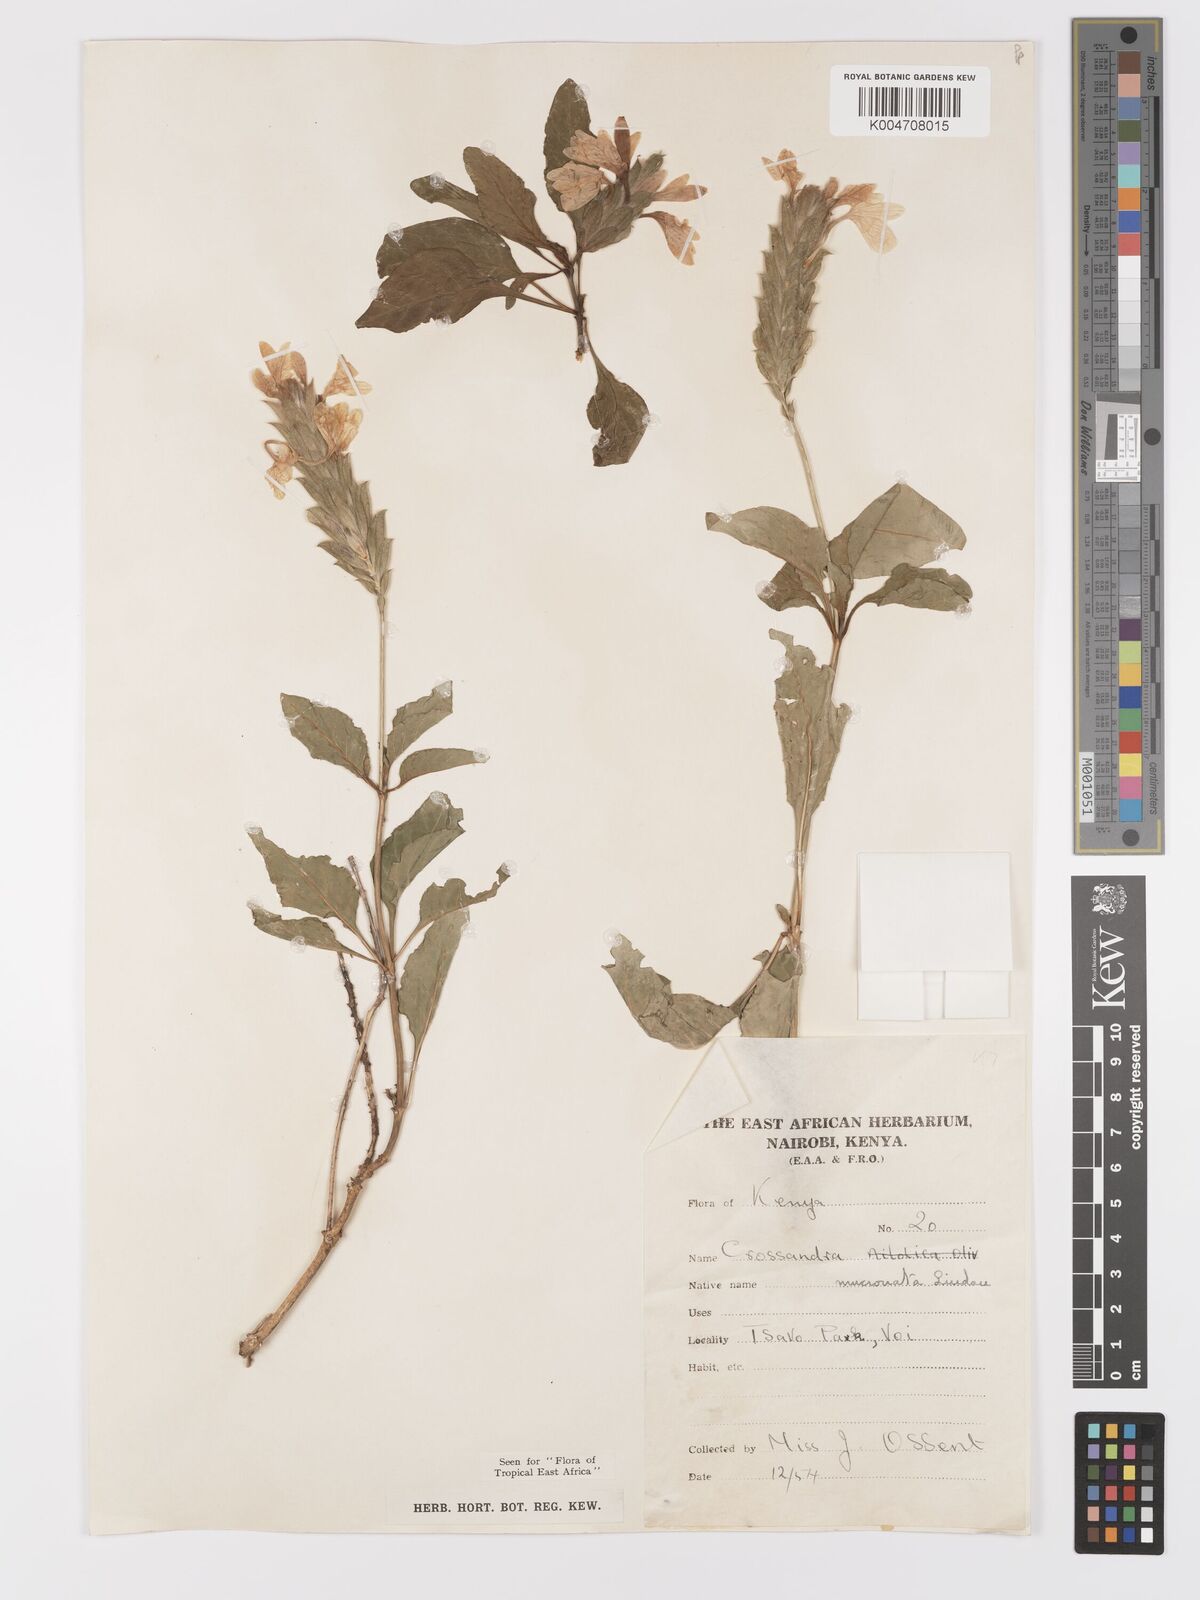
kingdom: Plantae
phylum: Tracheophyta
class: Magnoliopsida
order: Lamiales
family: Acanthaceae
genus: Crossandra
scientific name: Crossandra mucronata
